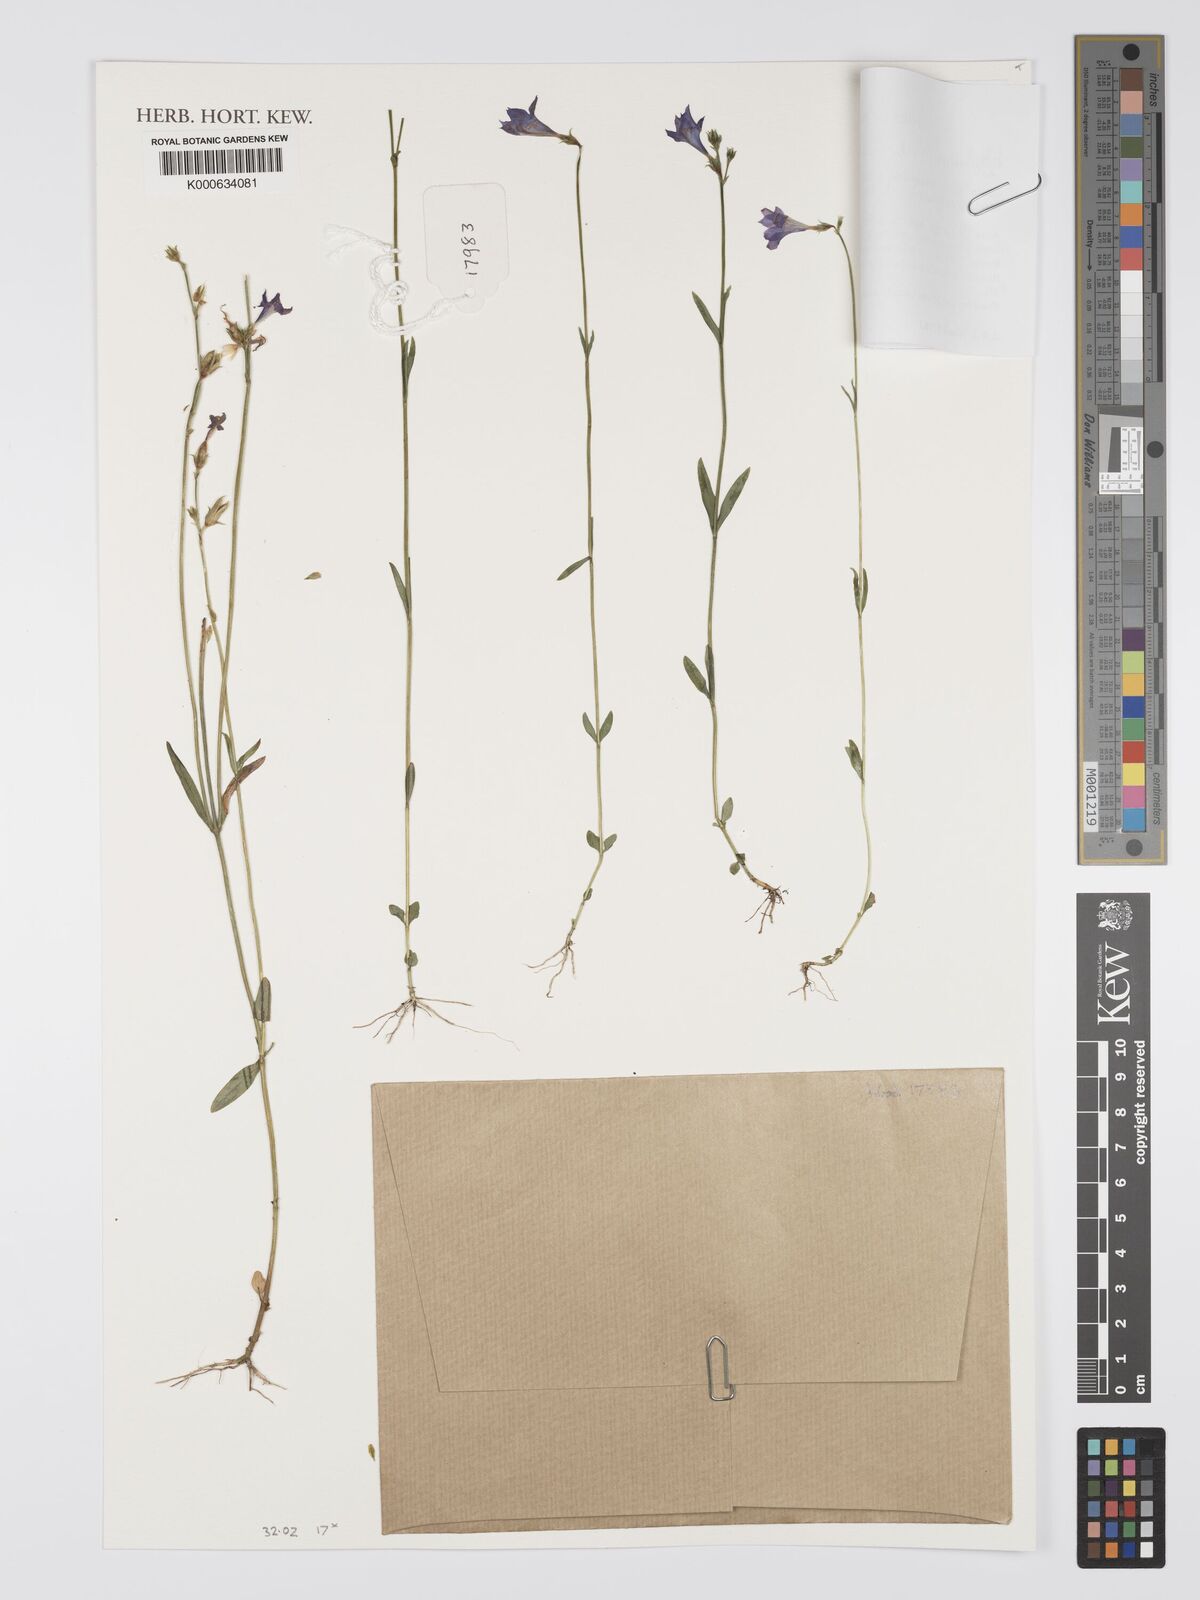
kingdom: Plantae
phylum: Tracheophyta
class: Magnoliopsida
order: Gentianales
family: Gentianaceae
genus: Tetrapollinia
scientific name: Tetrapollinia caerulescens
